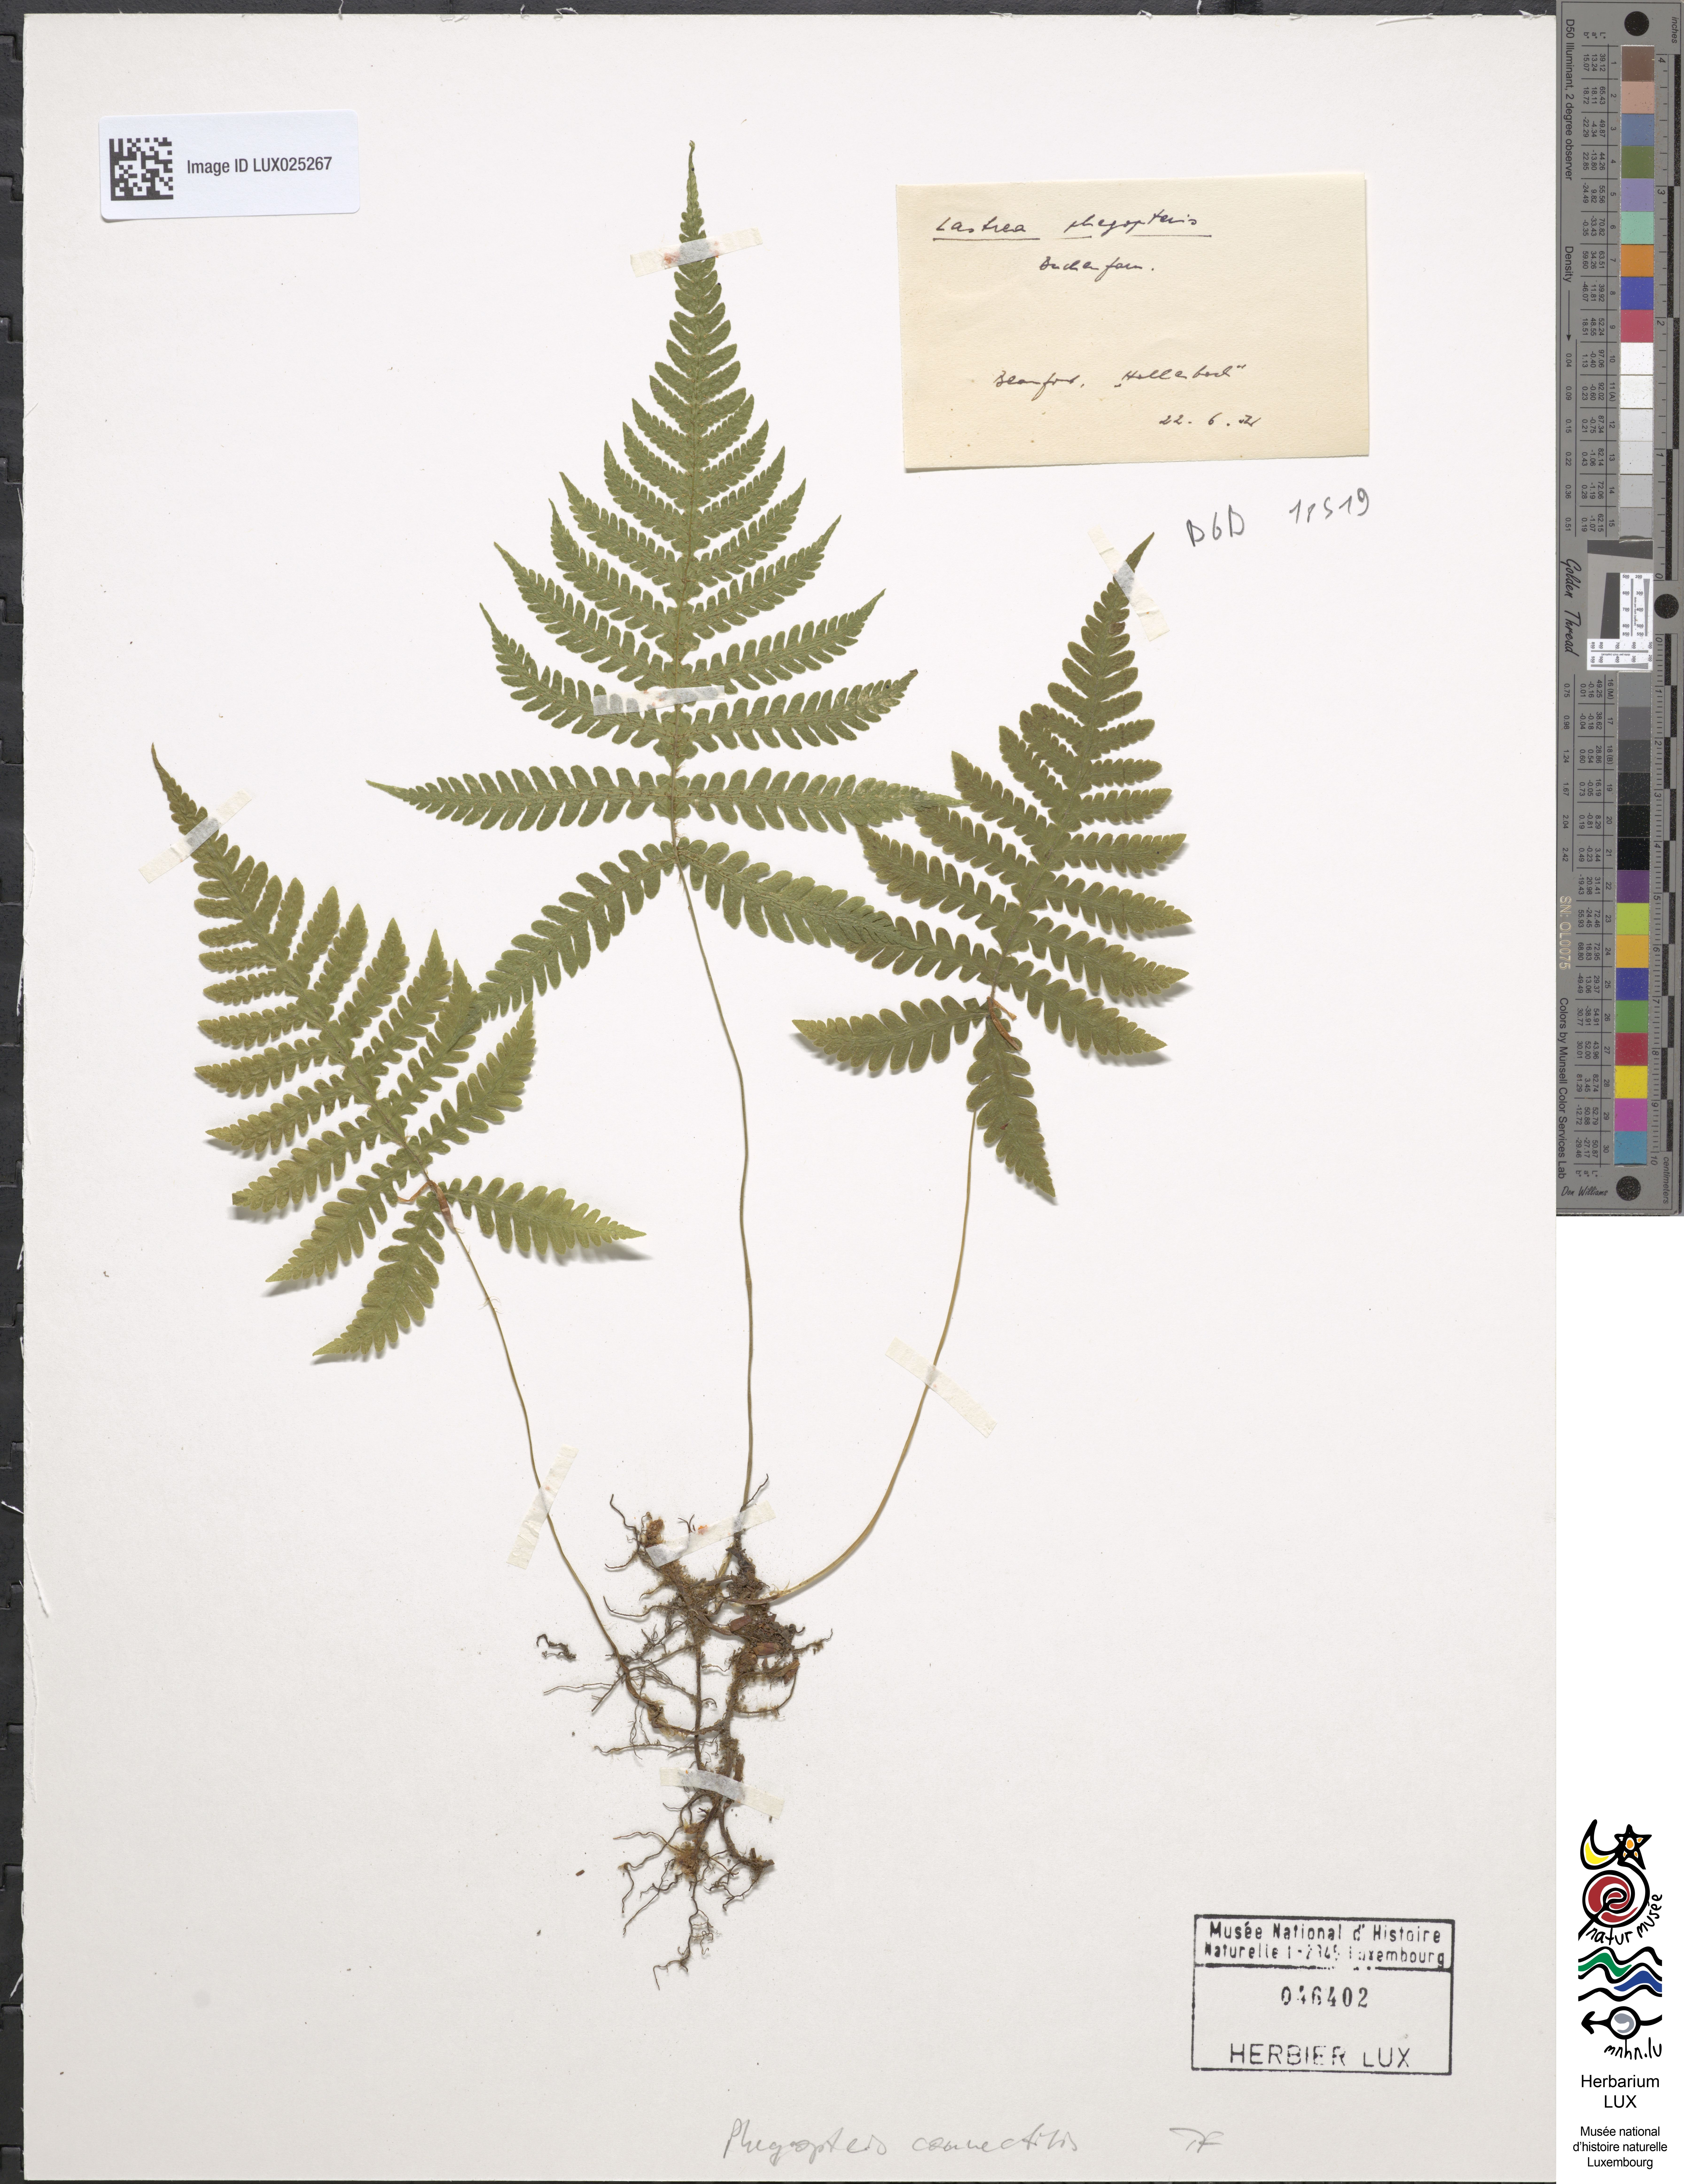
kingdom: Plantae
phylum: Tracheophyta
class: Polypodiopsida
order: Polypodiales
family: Thelypteridaceae
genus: Phegopteris
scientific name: Phegopteris connectilis
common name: Beech fern
